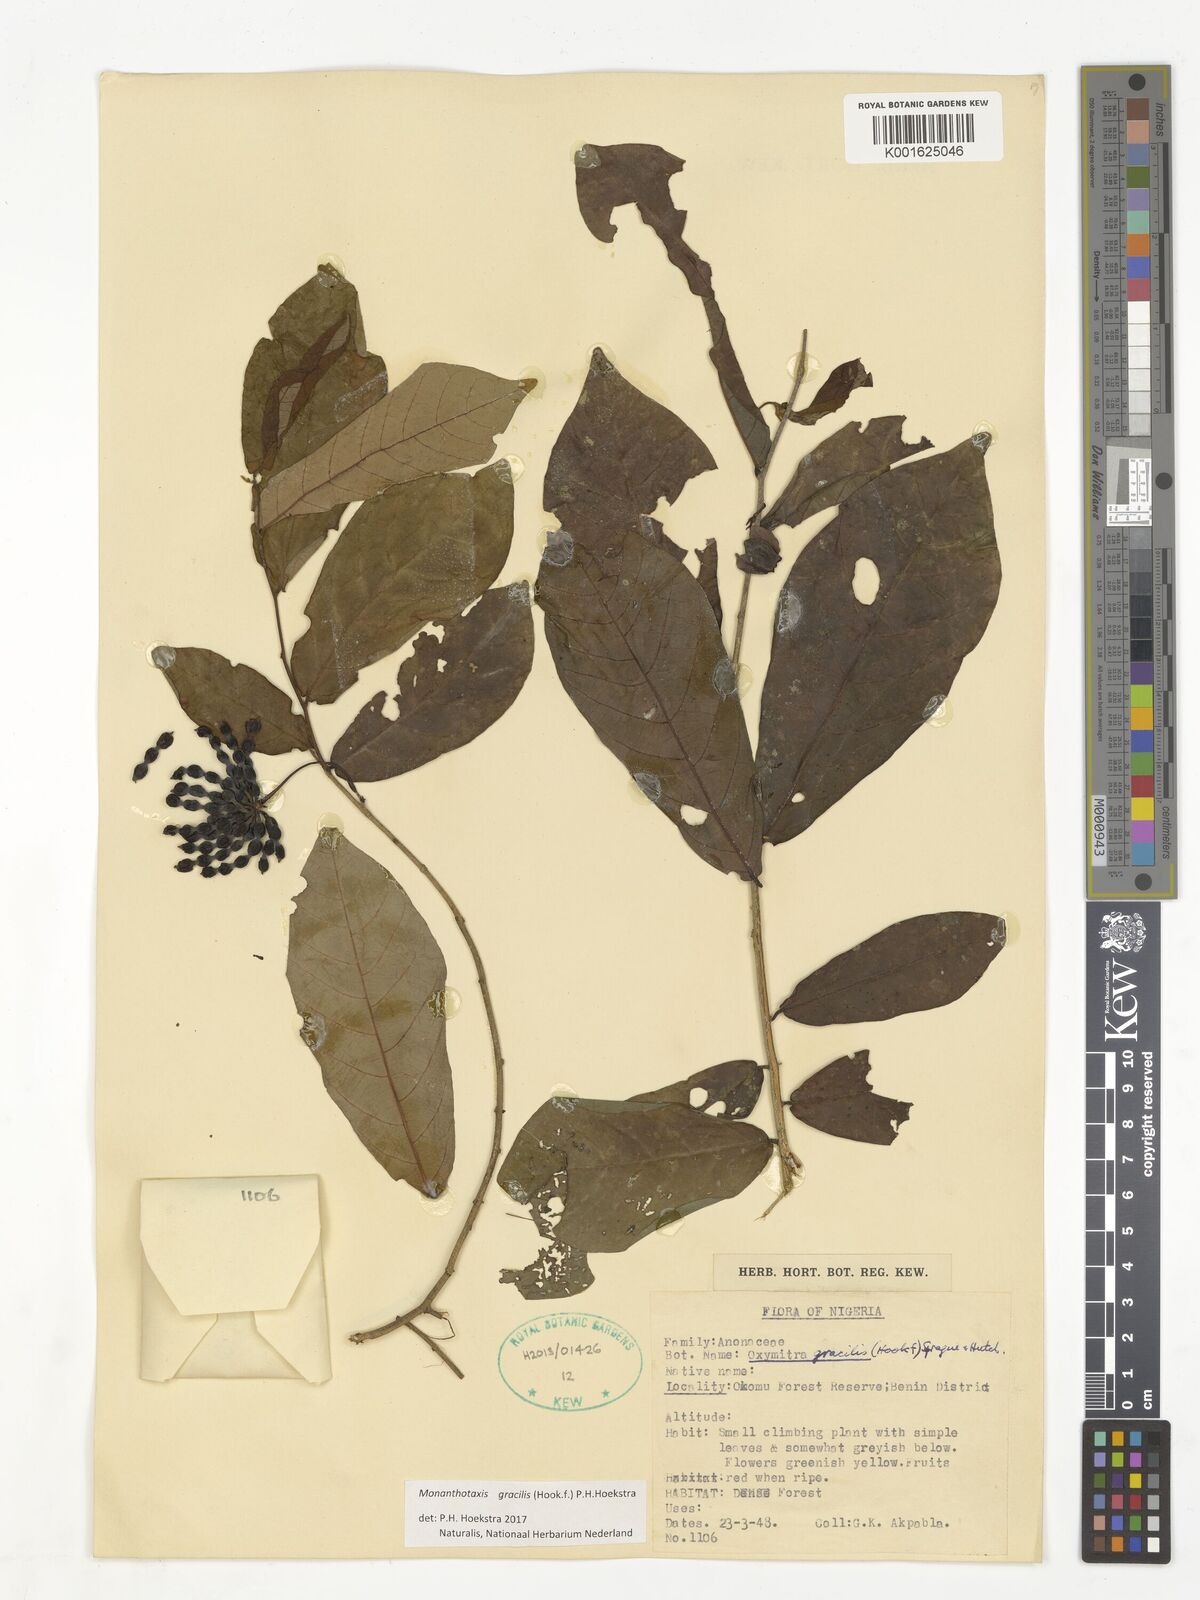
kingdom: Plantae
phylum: Tracheophyta
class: Magnoliopsida
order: Magnoliales
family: Annonaceae
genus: Friesodielsia
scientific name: Friesodielsia gracilis
